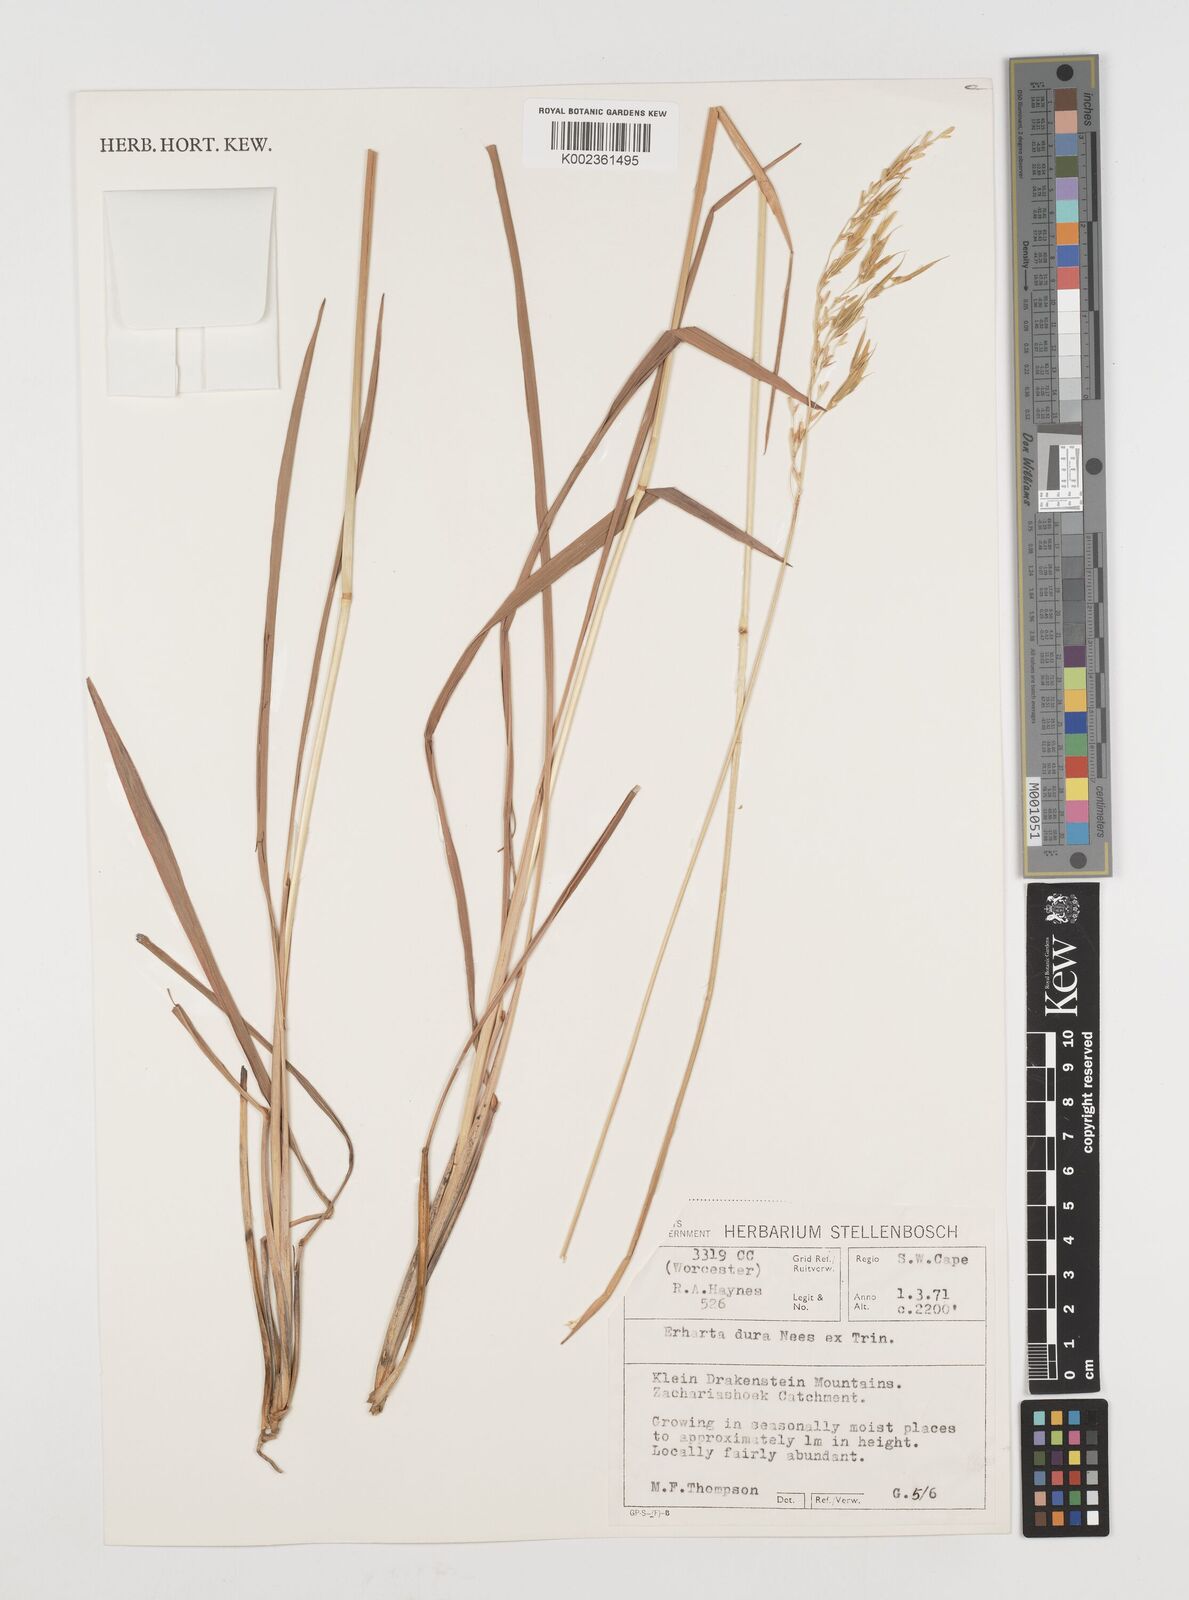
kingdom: Plantae
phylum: Tracheophyta
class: Liliopsida
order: Poales
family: Poaceae
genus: Ehrharta
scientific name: Ehrharta dura
